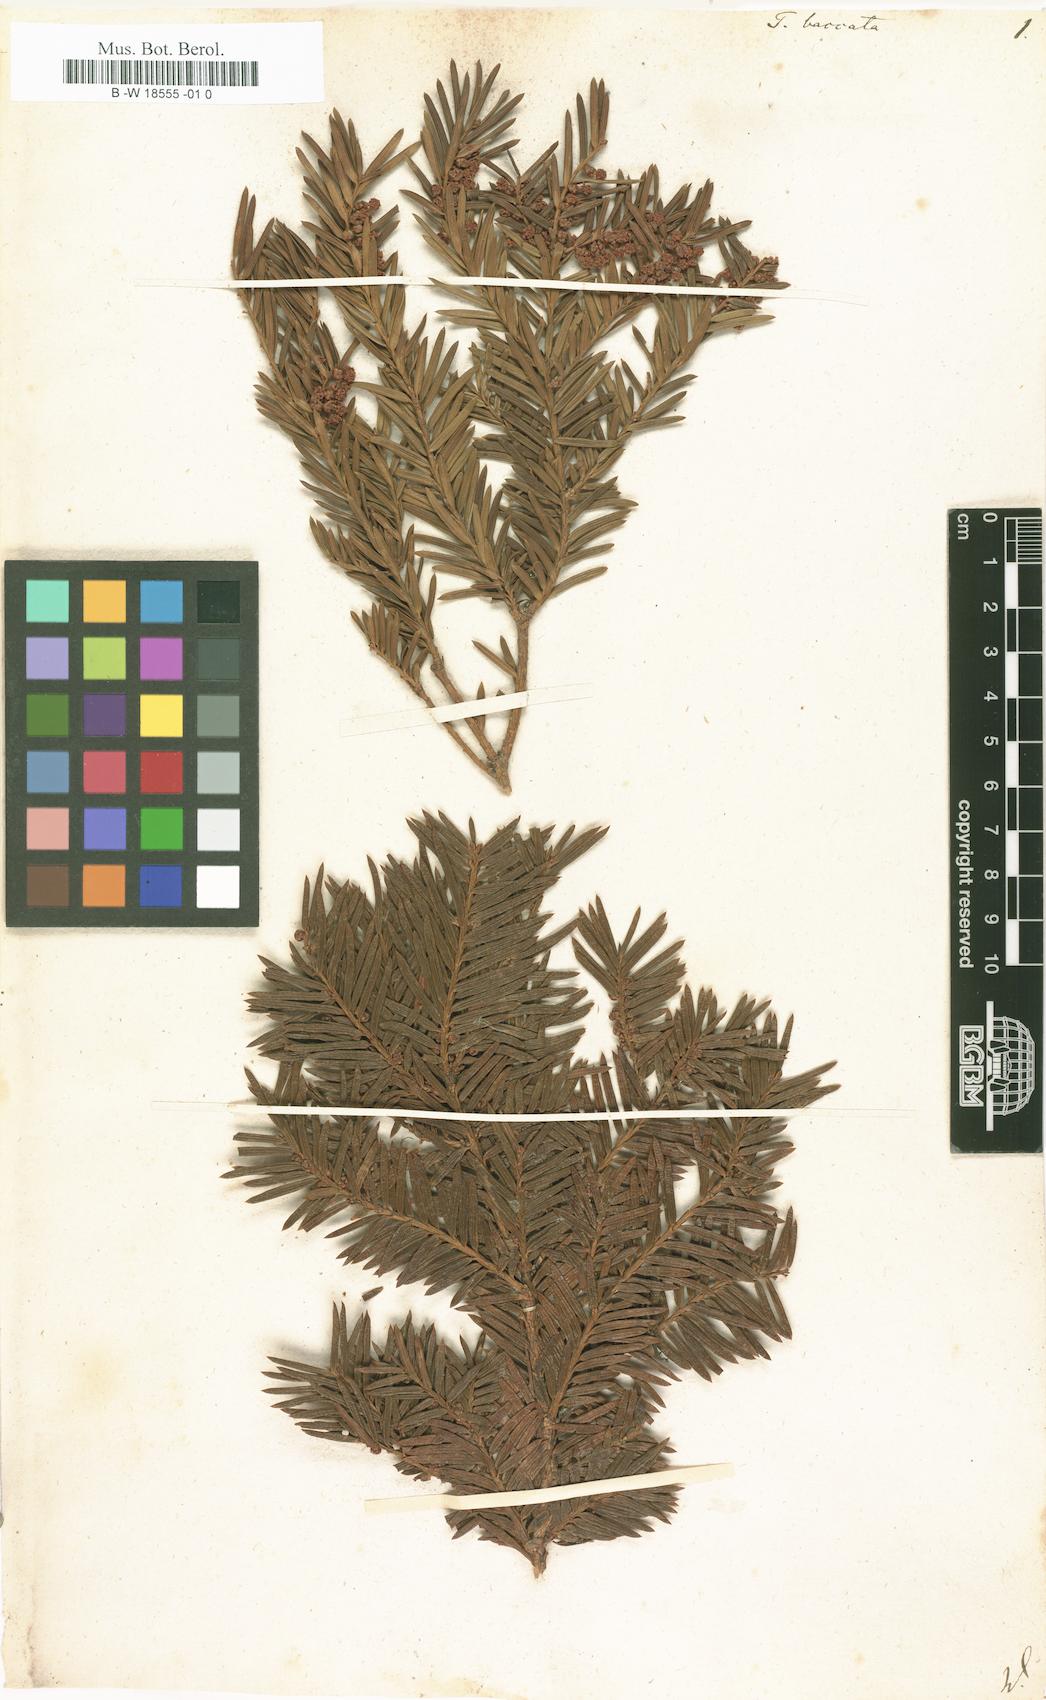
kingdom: Plantae
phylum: Tracheophyta
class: Pinopsida
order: Pinales
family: Taxaceae
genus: Taxus
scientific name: Taxus baccata
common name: Yew
